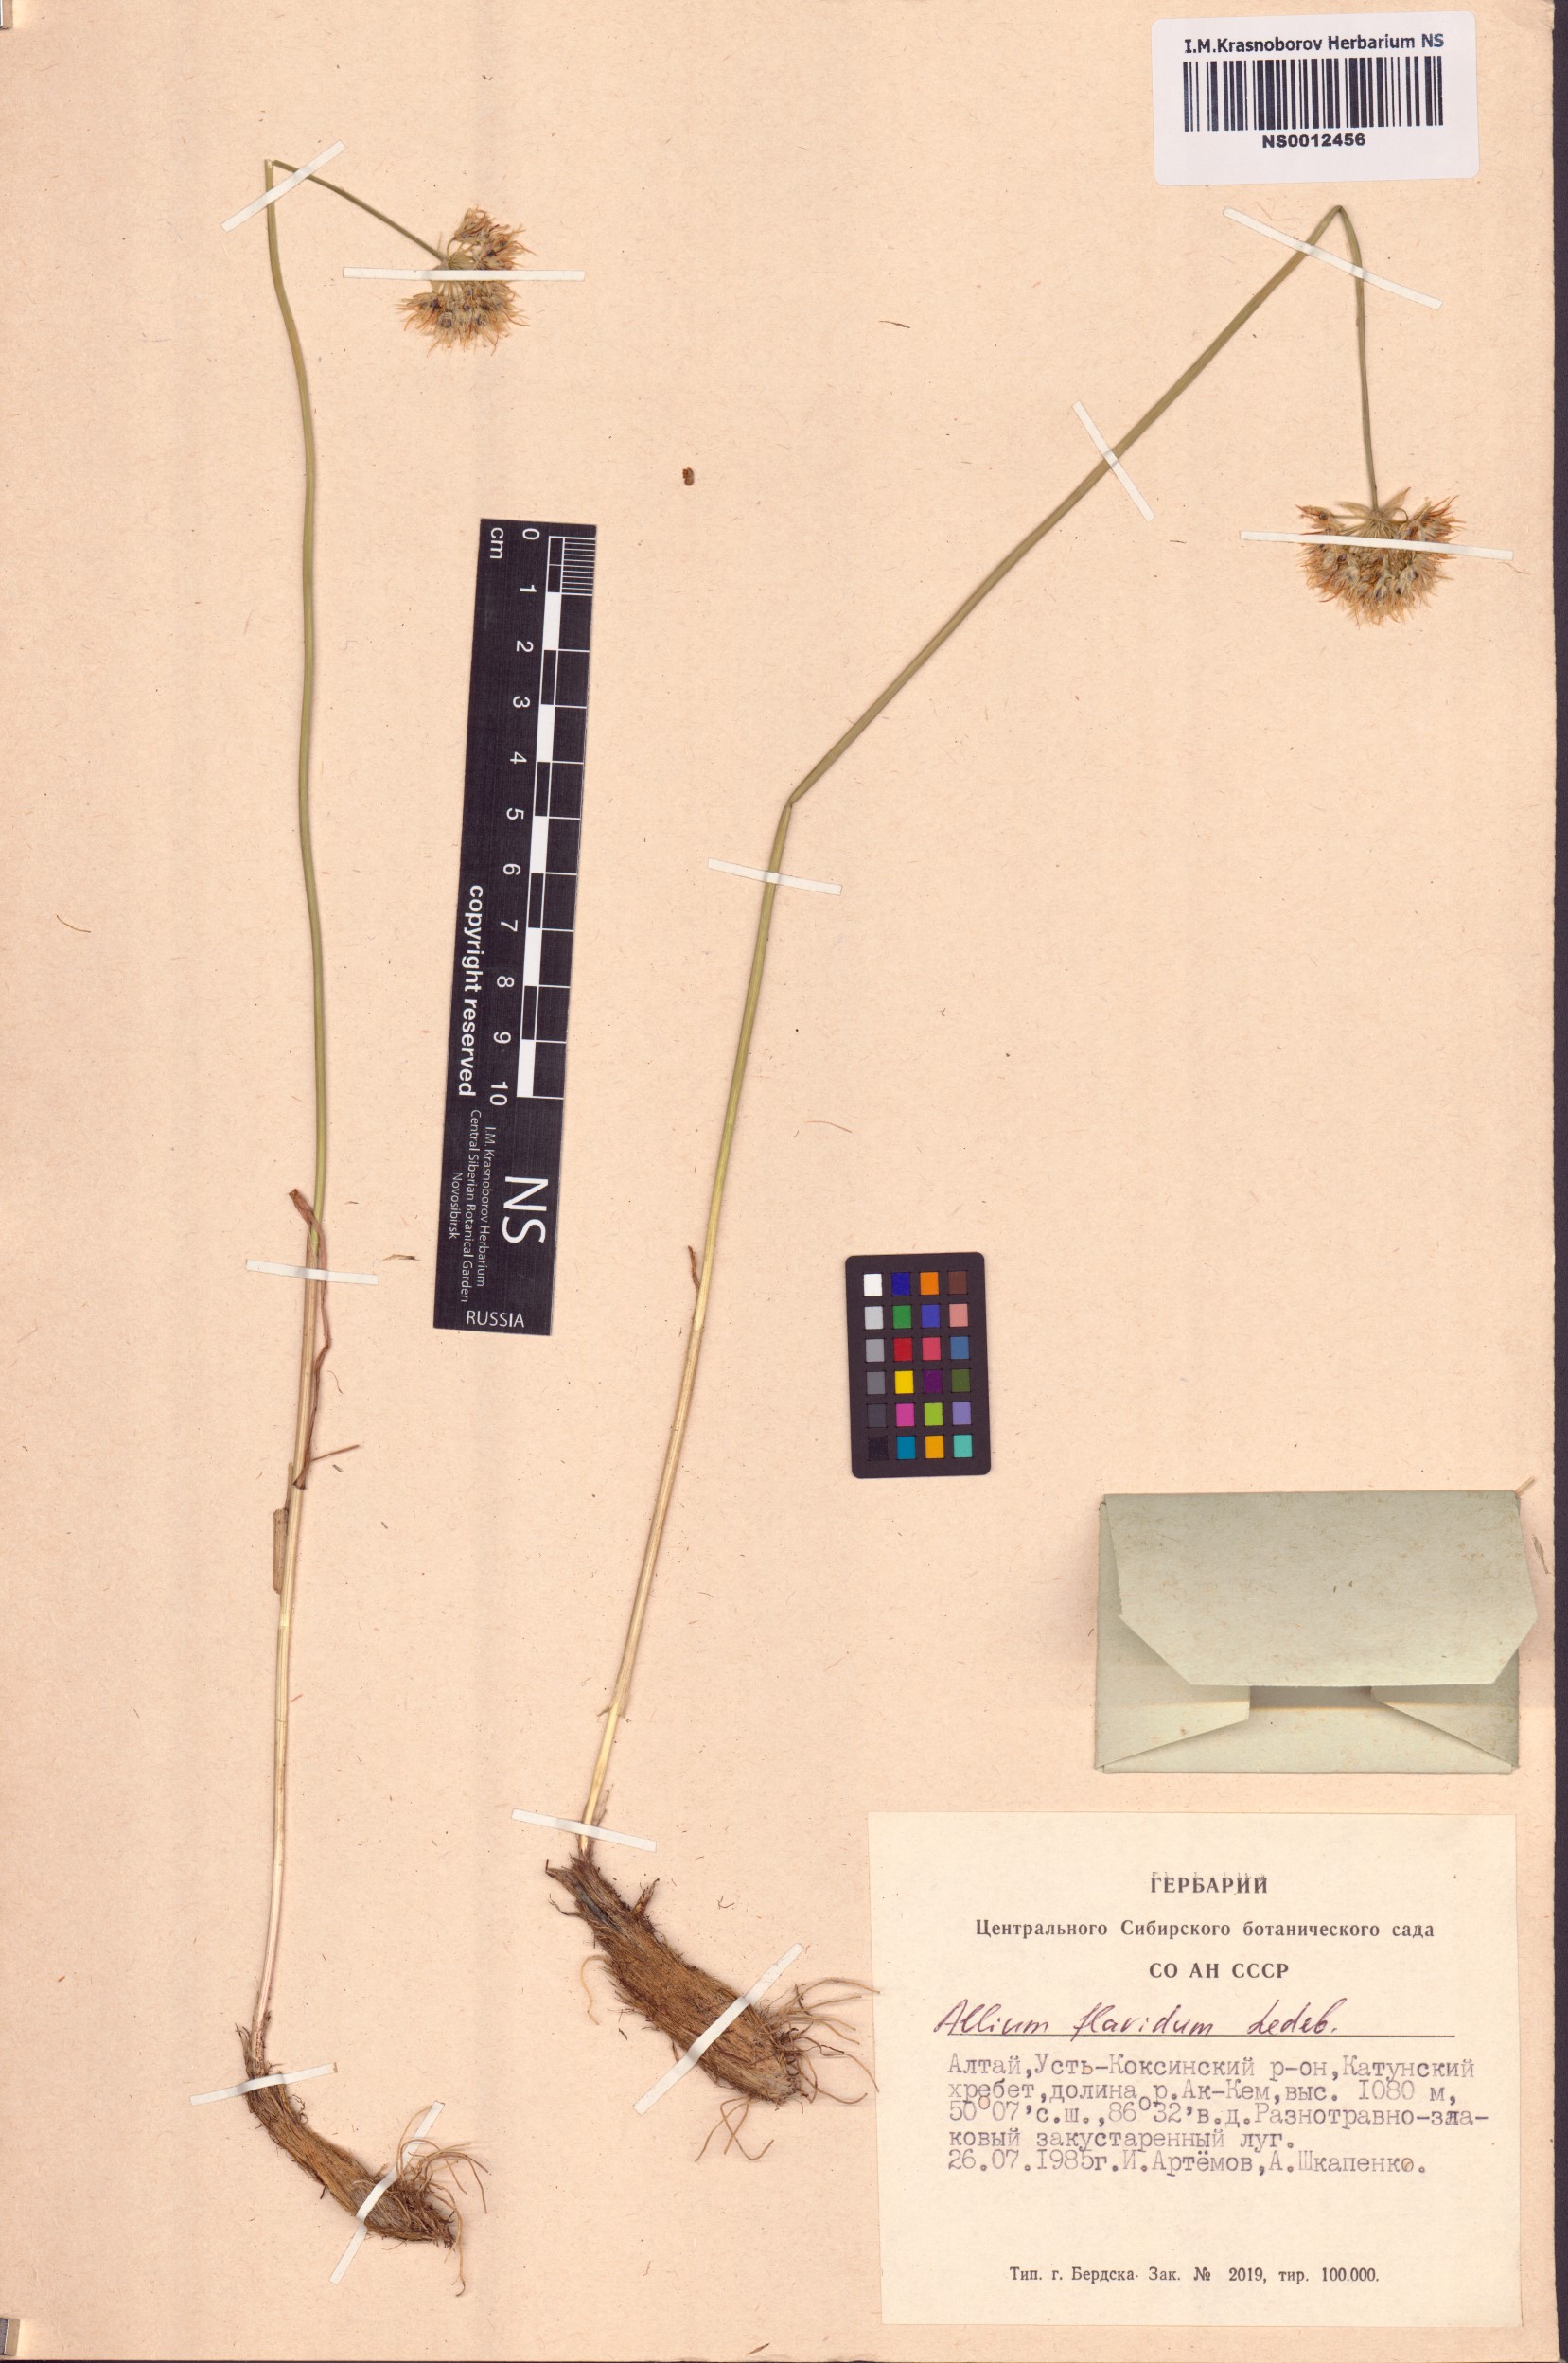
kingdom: Plantae
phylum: Tracheophyta
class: Liliopsida
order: Asparagales
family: Amaryllidaceae
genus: Allium
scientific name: Allium flavidum
